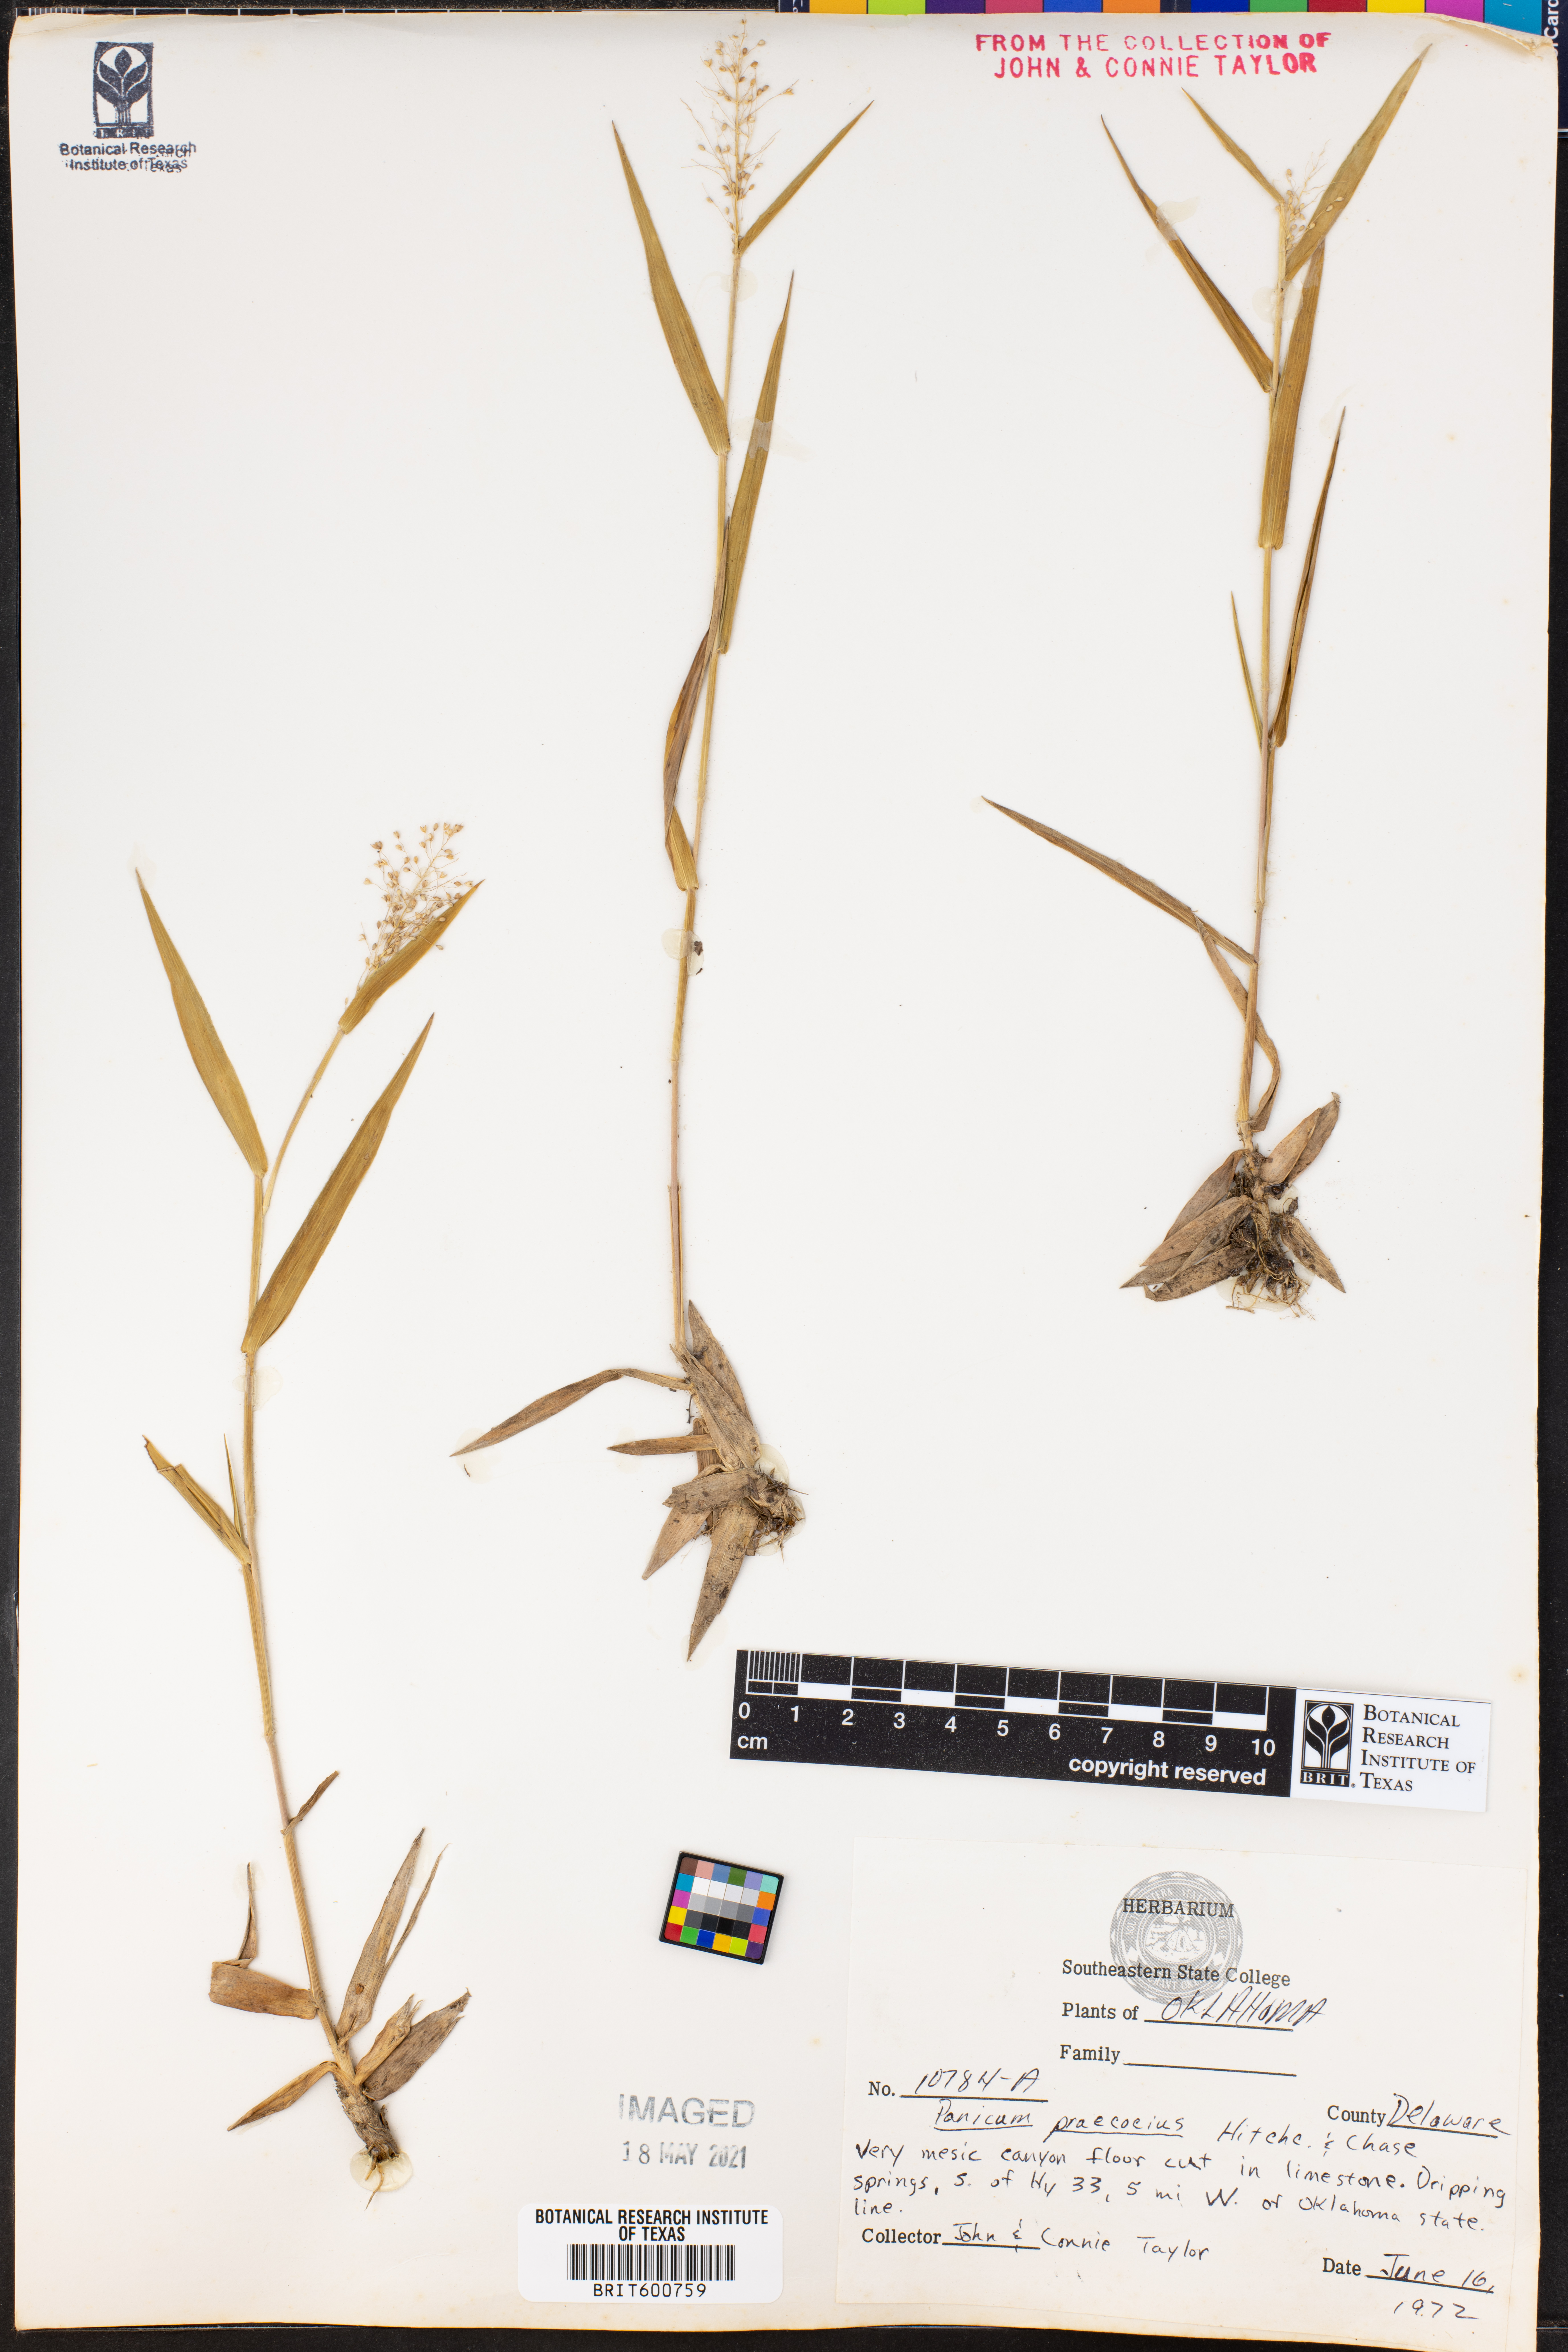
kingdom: Plantae
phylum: Tracheophyta
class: Liliopsida
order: Poales
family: Poaceae
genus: Dichanthelium
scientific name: Dichanthelium praecocius
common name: Early-branching panicgrass
